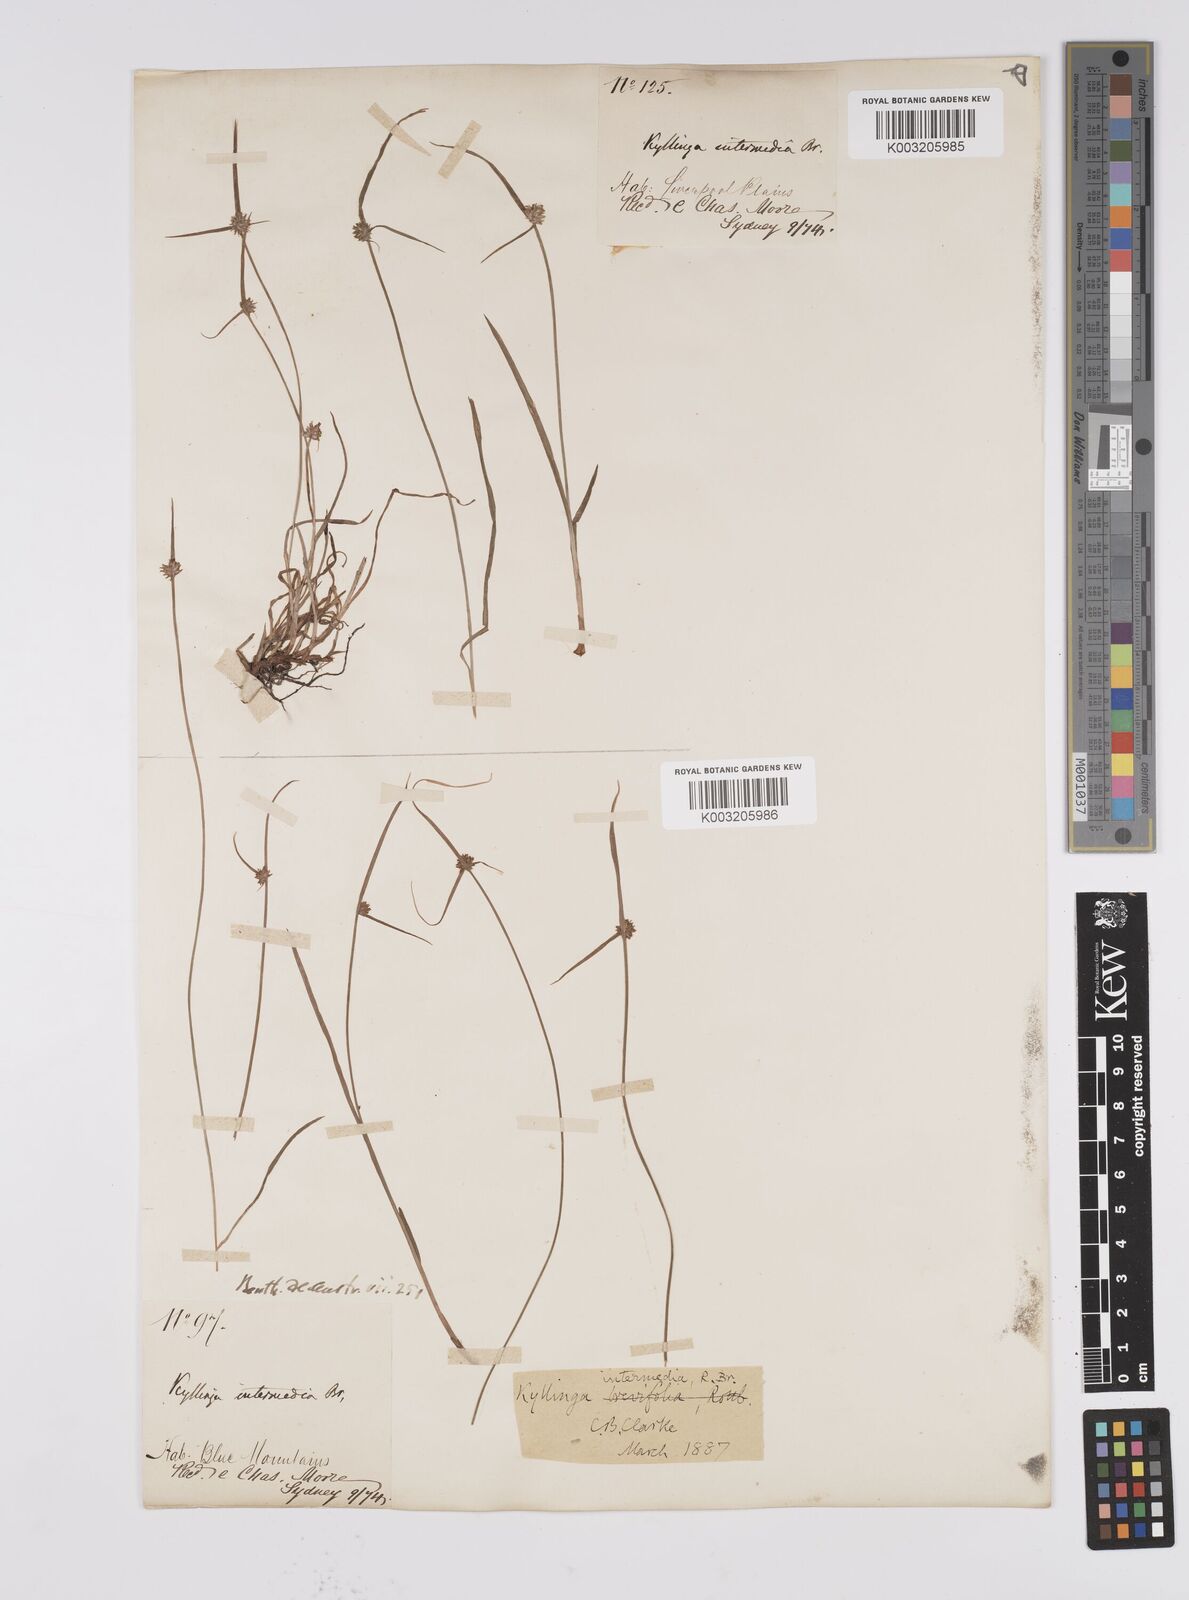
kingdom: Plantae
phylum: Tracheophyta
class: Liliopsida
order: Poales
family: Cyperaceae
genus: Cyperus
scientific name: Cyperus brevifolius
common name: Globe kyllinga
